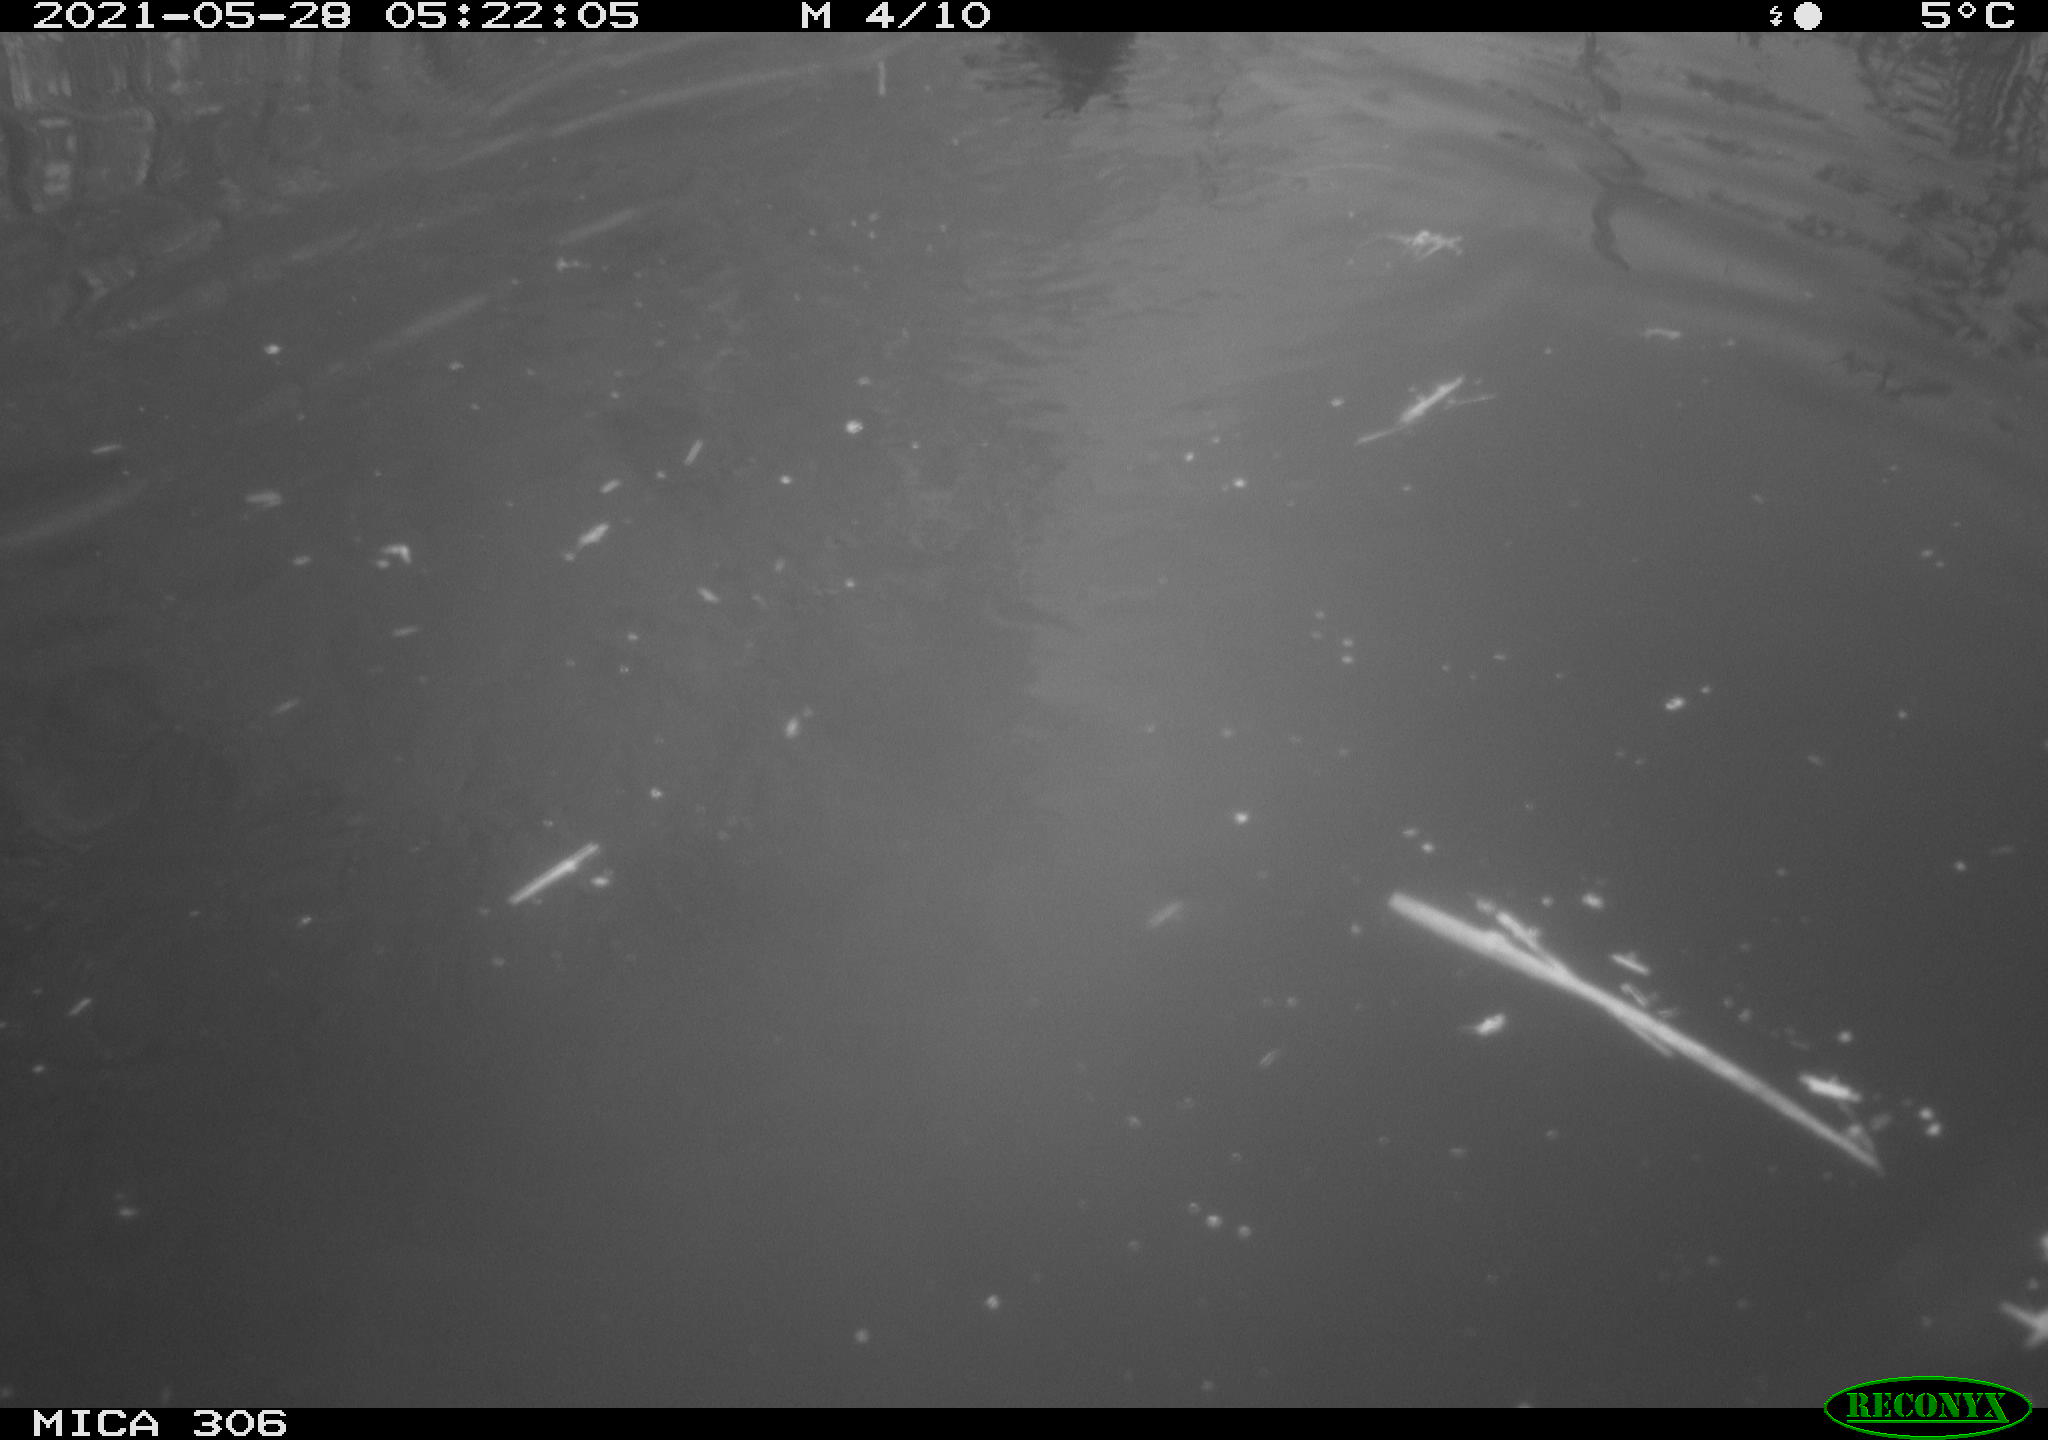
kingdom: Animalia
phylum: Chordata
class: Aves
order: Anseriformes
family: Anatidae
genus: Anas
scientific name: Anas platyrhynchos
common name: Mallard
